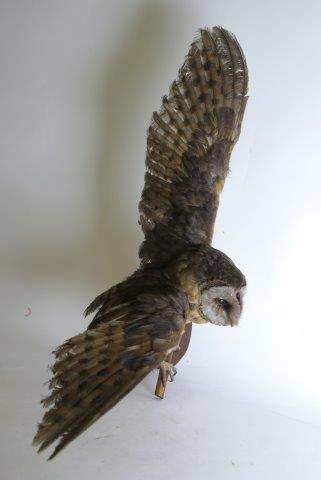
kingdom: Animalia
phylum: Chordata
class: Aves
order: Strigiformes
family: Tytonidae
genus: Tyto
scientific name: Tyto alba
